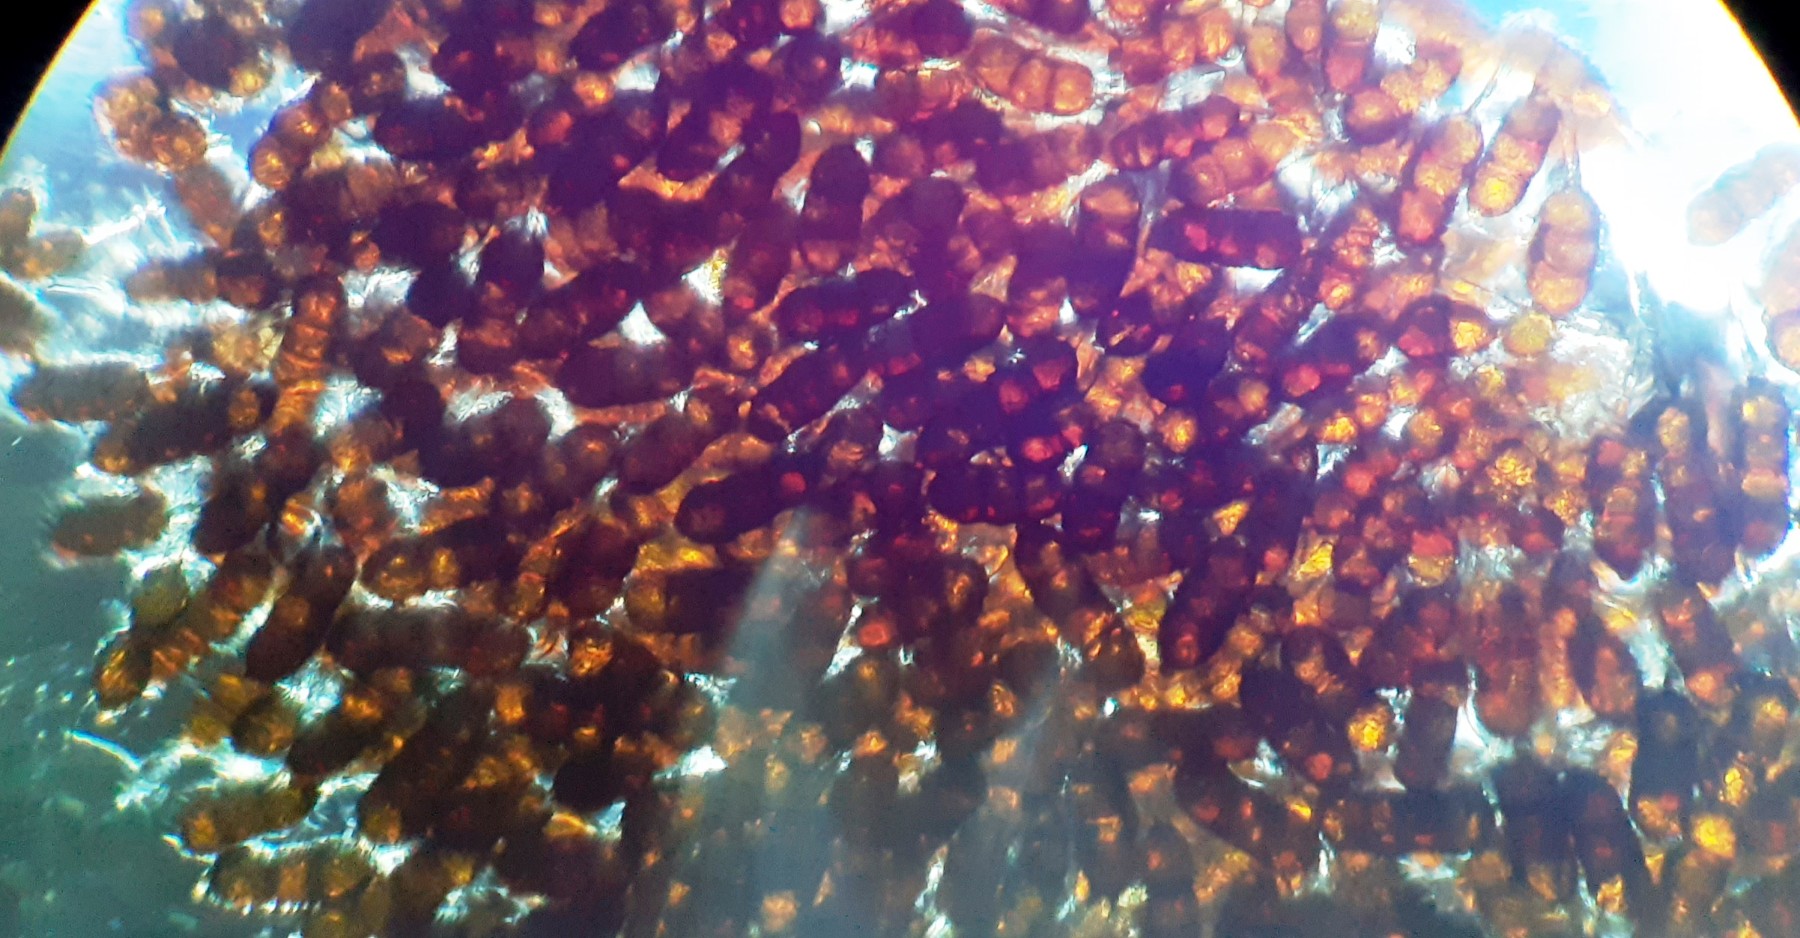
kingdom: Fungi
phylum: Basidiomycota
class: Pucciniomycetes
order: Pucciniales
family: Phragmidiaceae
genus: Phragmidium
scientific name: Phragmidium violaceum
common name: violet flercellerust
